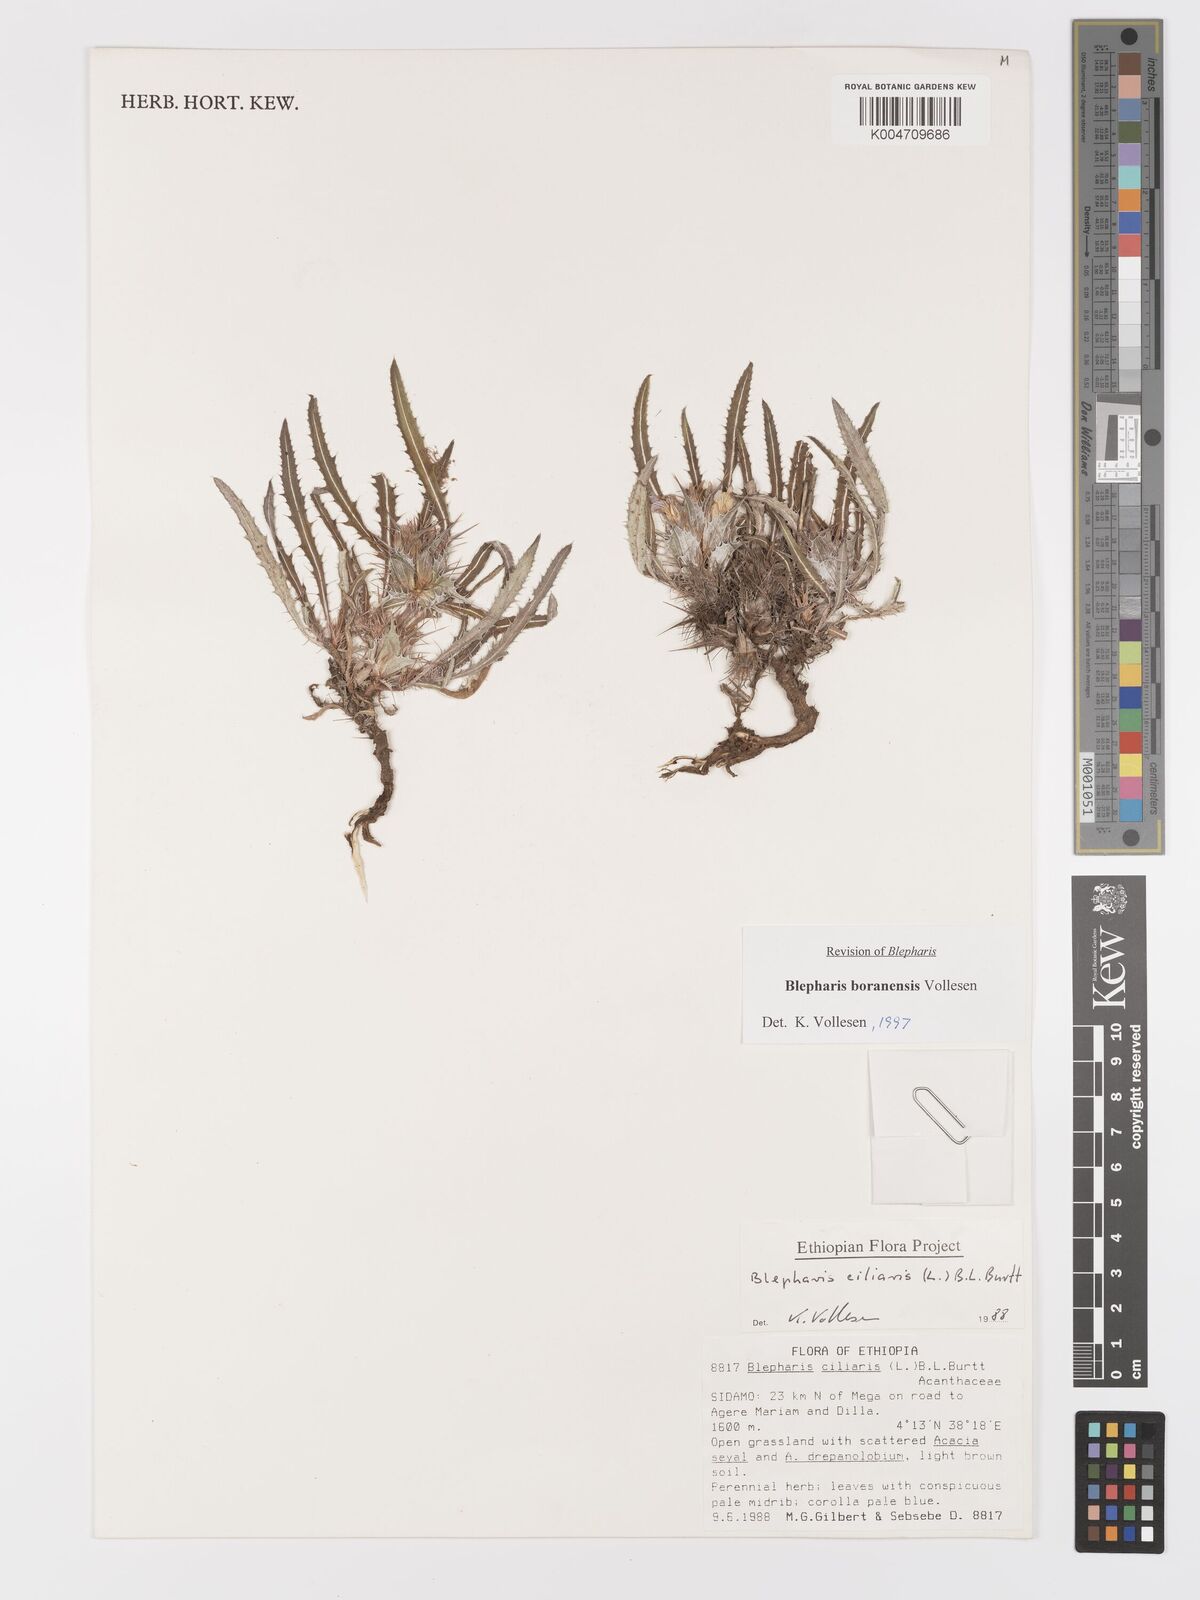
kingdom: Plantae
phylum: Tracheophyta
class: Magnoliopsida
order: Lamiales
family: Acanthaceae
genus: Blepharis
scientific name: Blepharis boranensis
